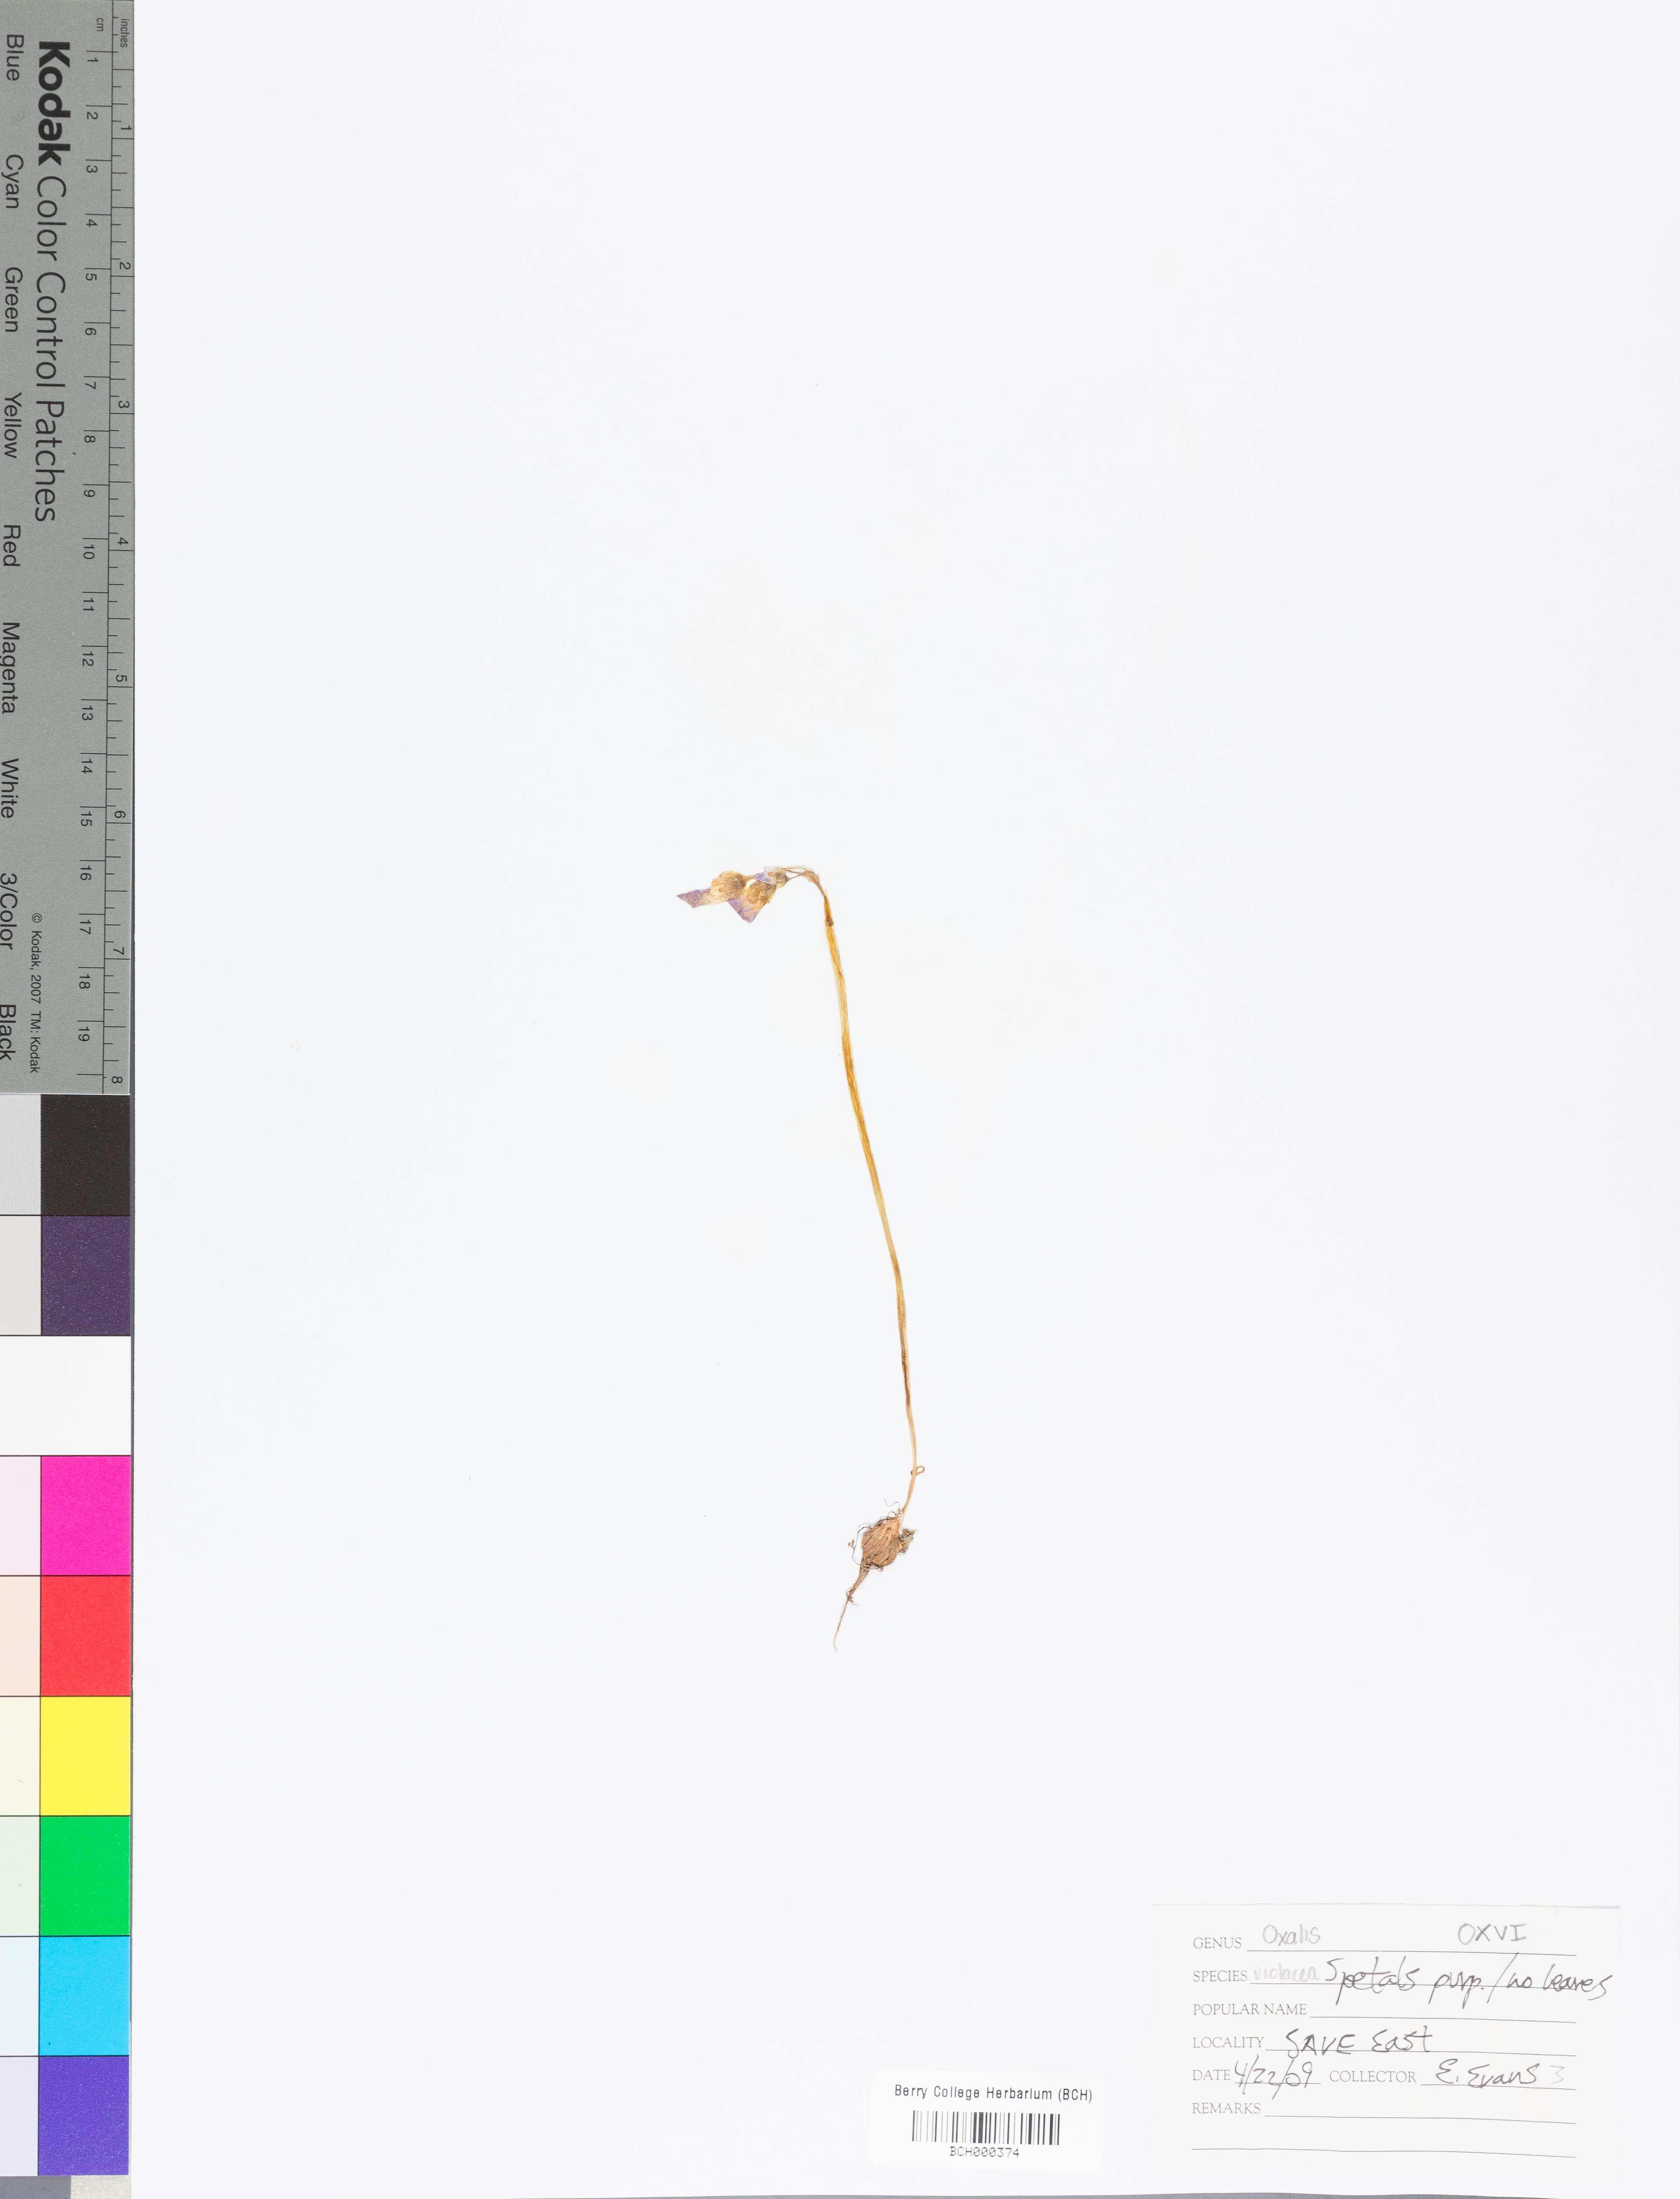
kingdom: Plantae
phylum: Tracheophyta
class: Magnoliopsida
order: Oxalidales
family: Oxalidaceae
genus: Oxalis
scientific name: Oxalis violacea
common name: Violet wood-sorrel
